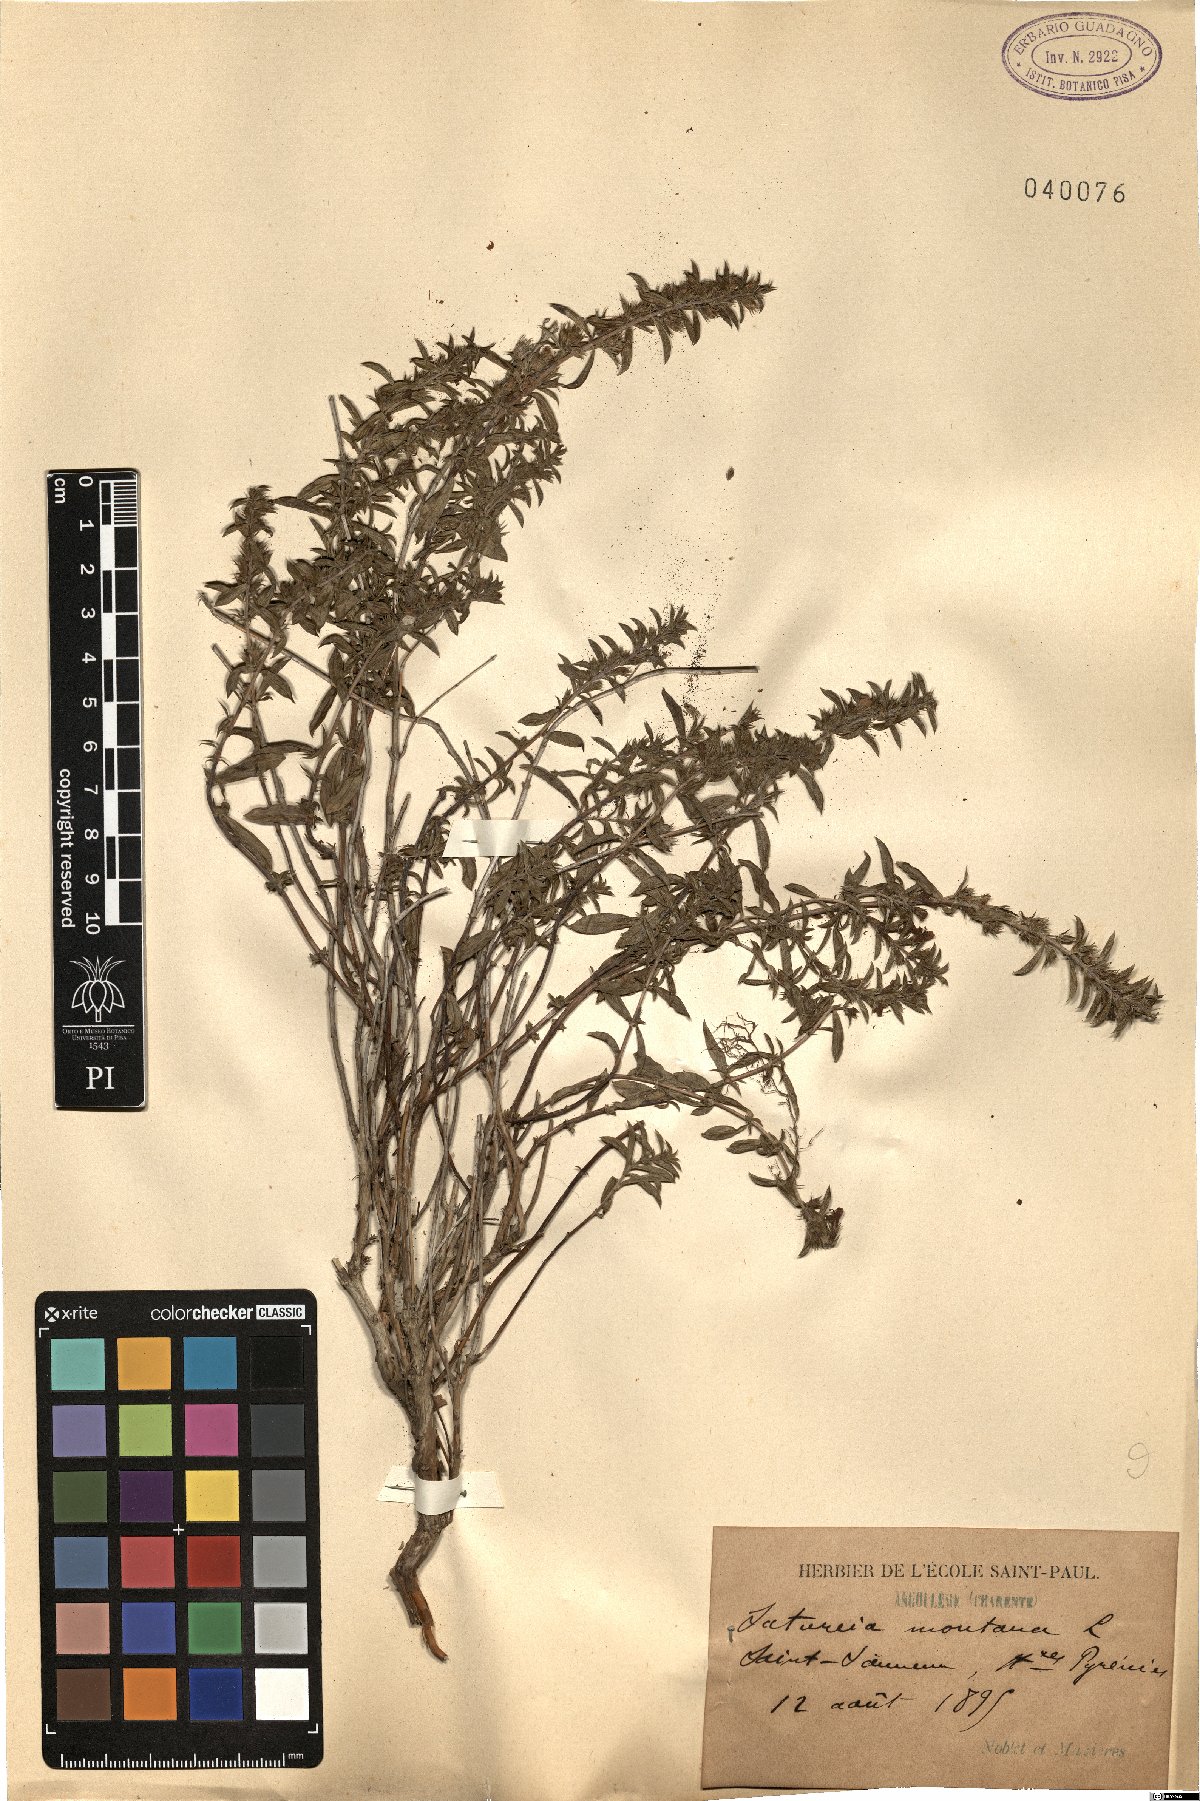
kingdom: Plantae
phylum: Tracheophyta
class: Magnoliopsida
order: Lamiales
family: Lamiaceae
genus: Satureja
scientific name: Satureja montana
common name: Winter savory
